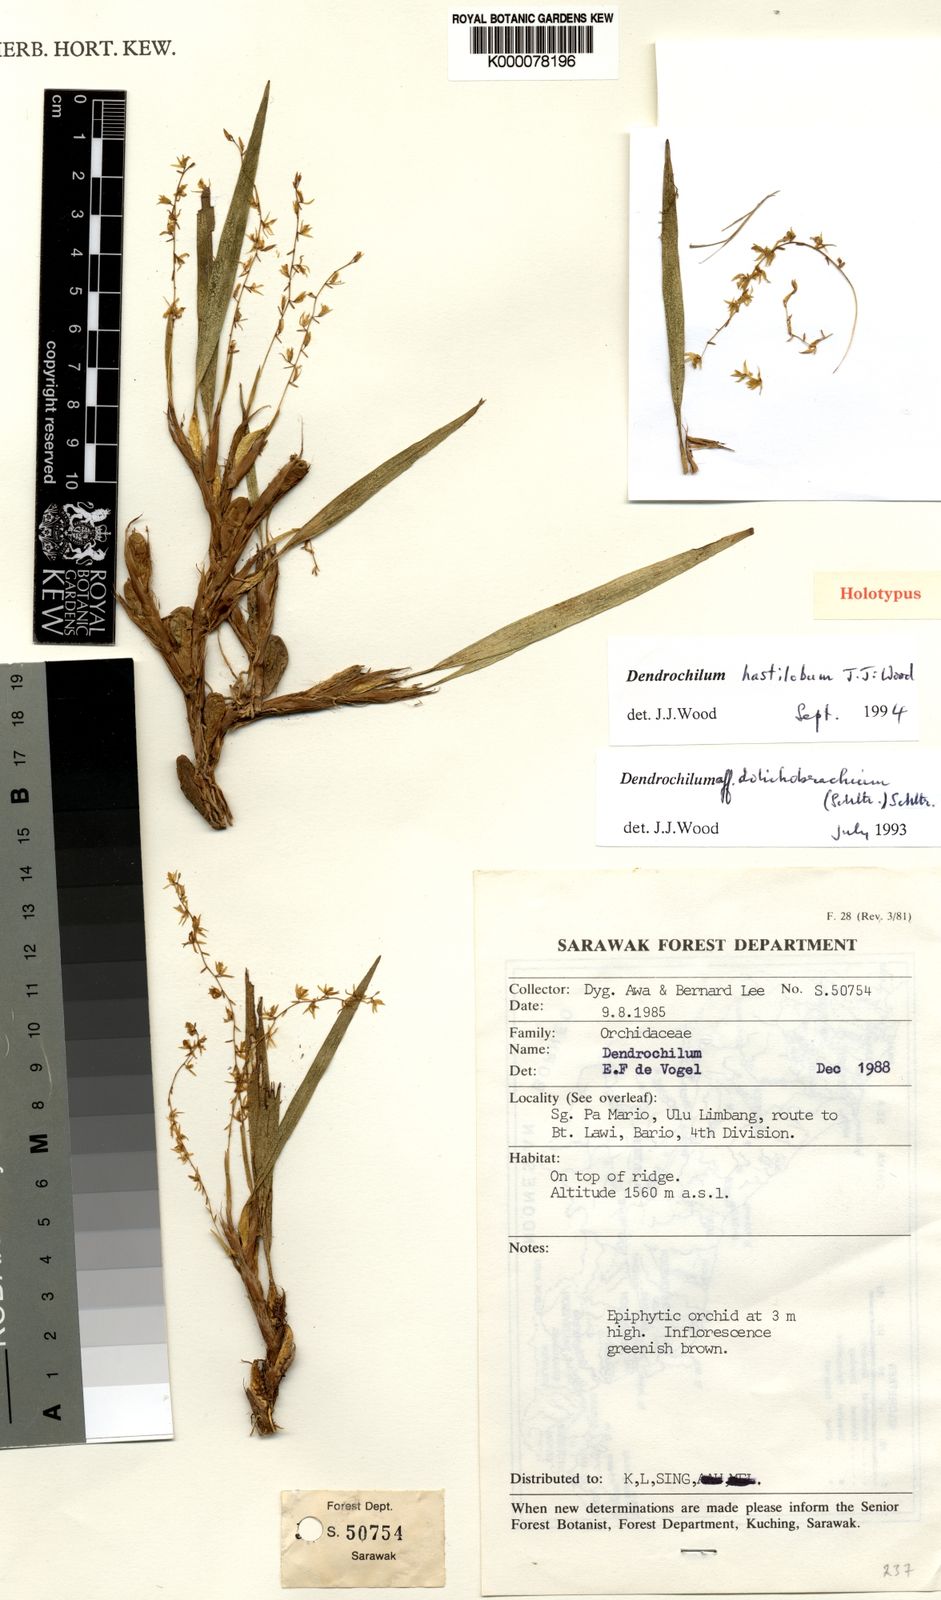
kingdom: Plantae
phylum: Tracheophyta
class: Liliopsida
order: Asparagales
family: Orchidaceae
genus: Coelogyne
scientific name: Coelogyne hastiloba
